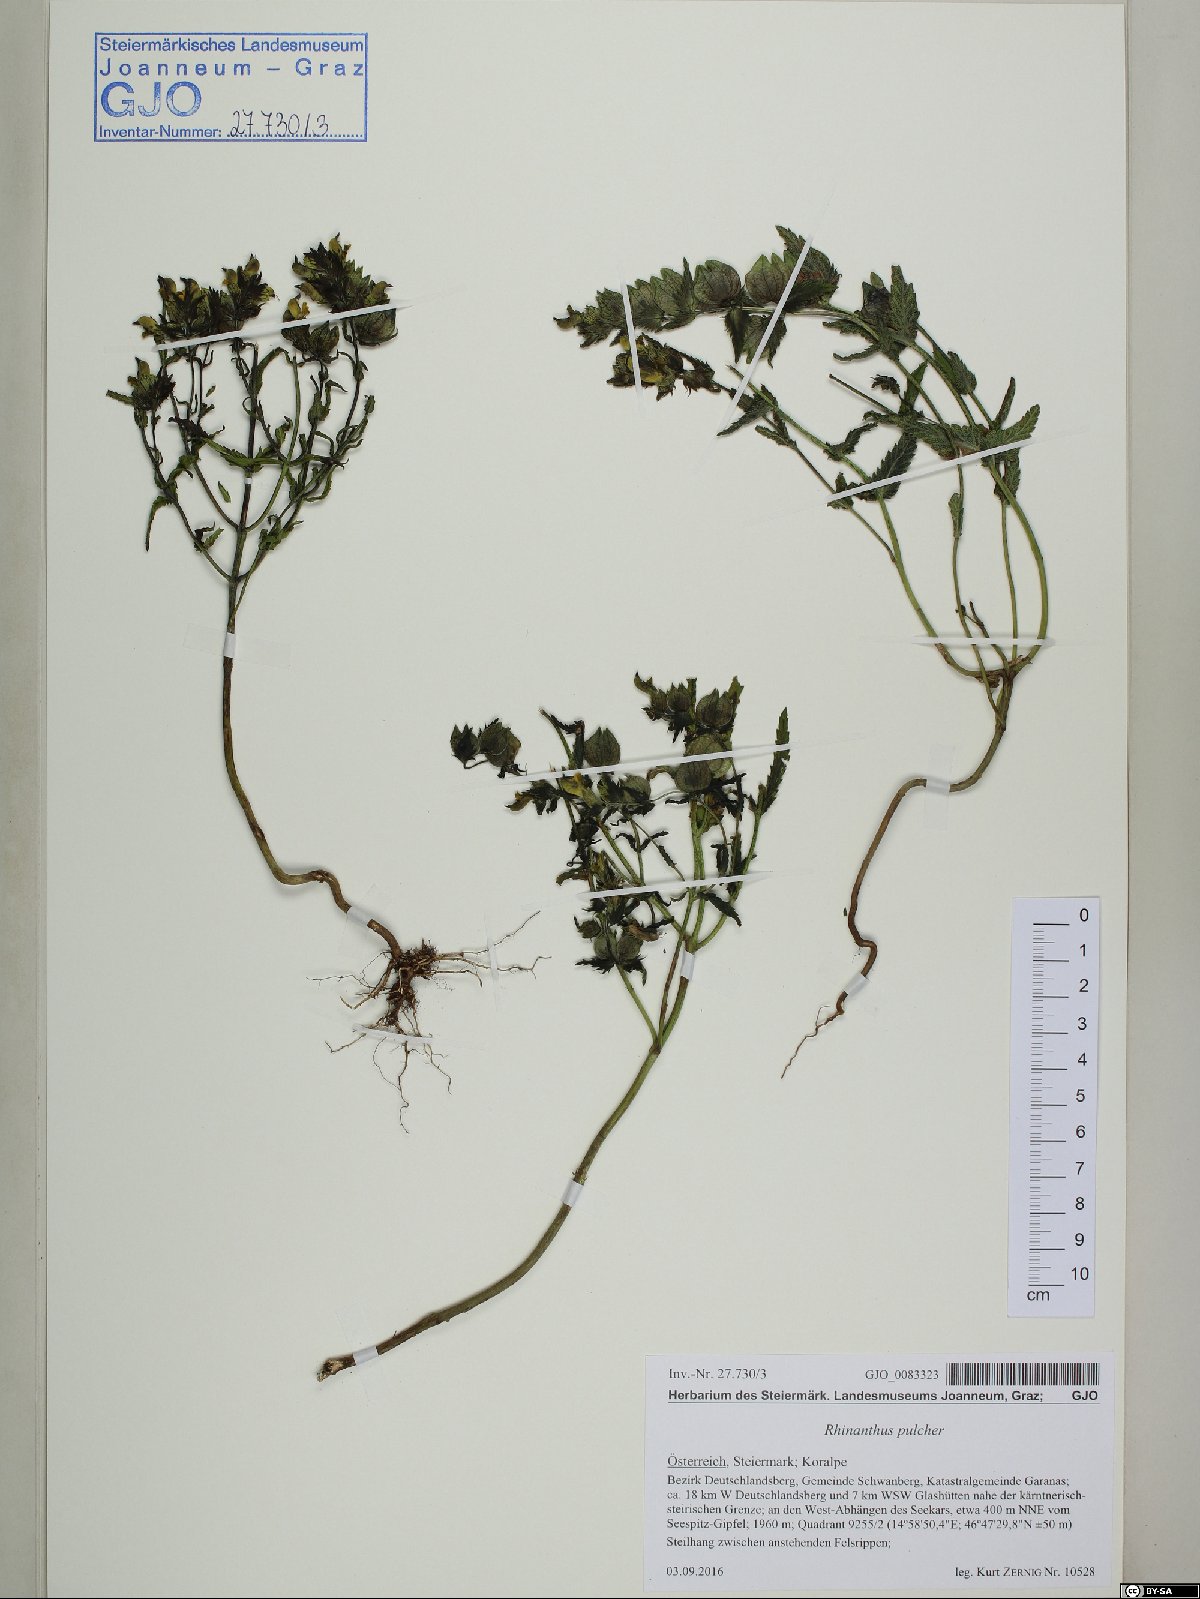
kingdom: Plantae
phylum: Tracheophyta
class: Magnoliopsida
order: Lamiales
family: Orobanchaceae
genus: Rhinanthus
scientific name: Rhinanthus riphaeus
